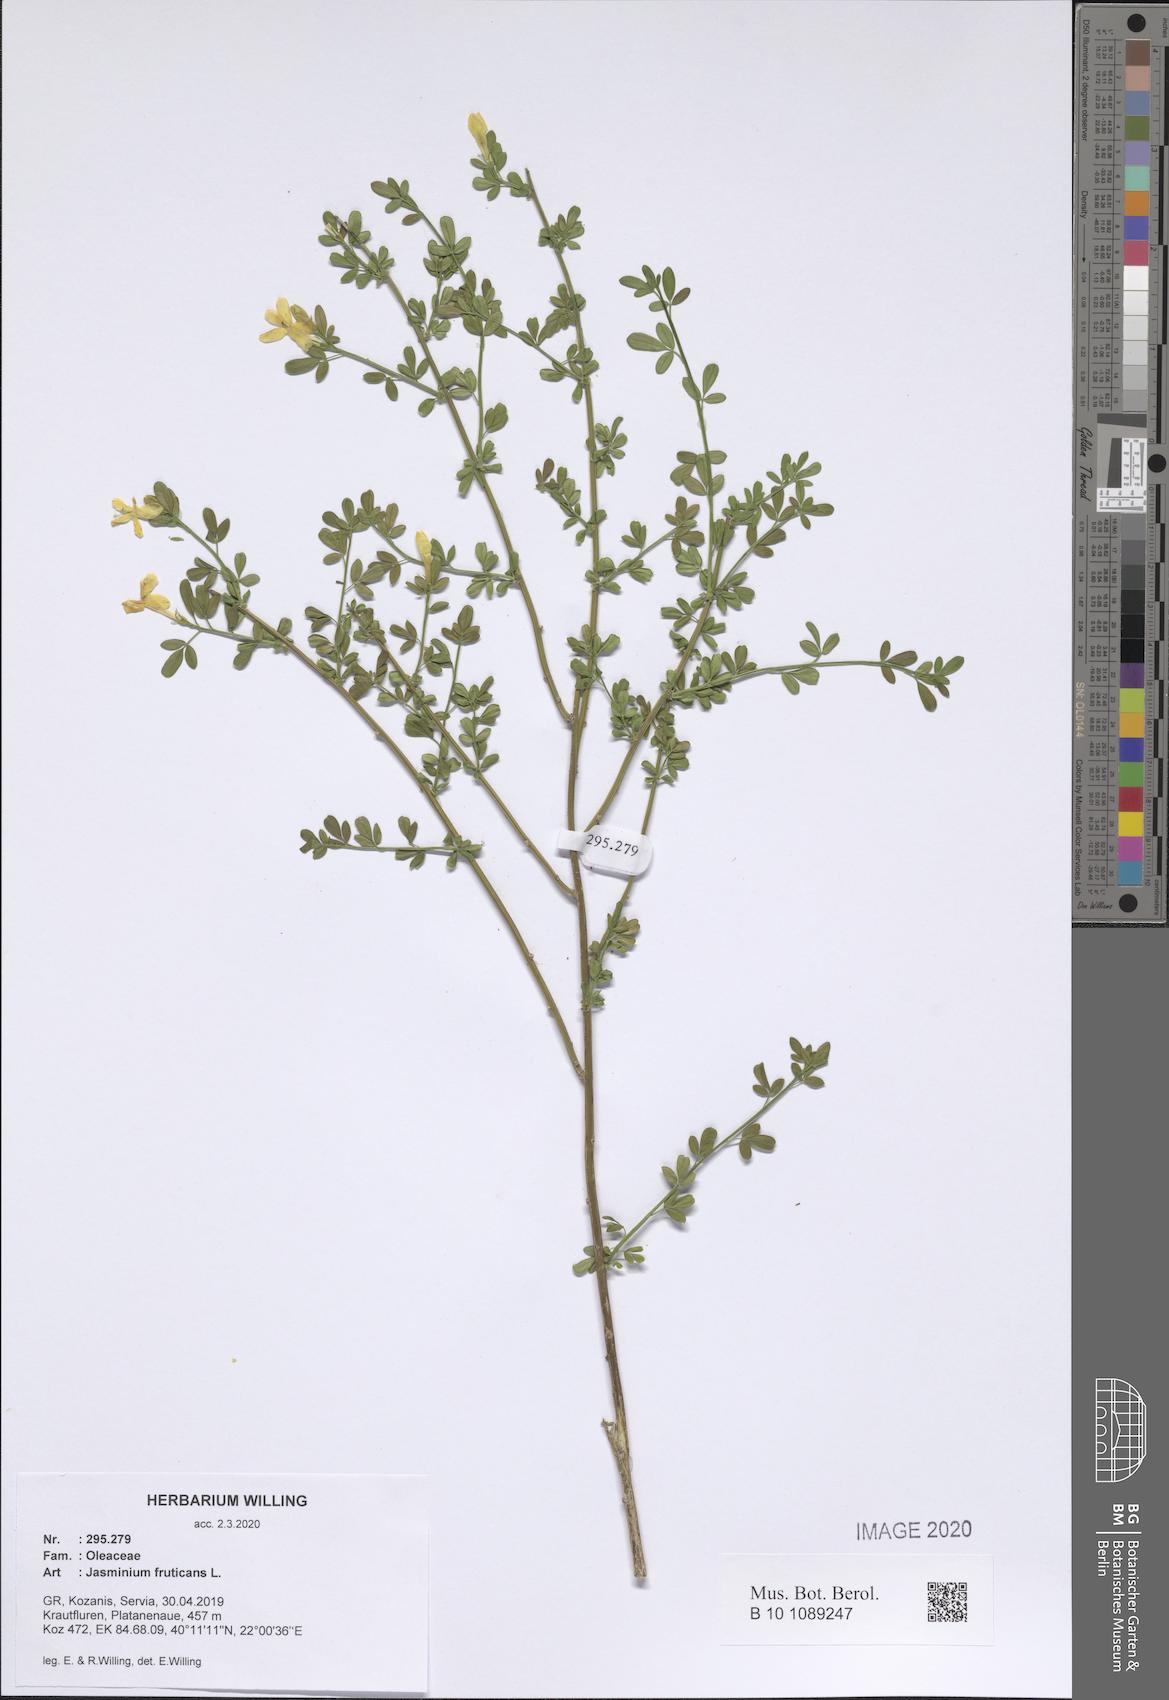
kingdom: Plantae
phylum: Tracheophyta
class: Magnoliopsida
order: Lamiales
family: Oleaceae
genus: Chrysojasminum
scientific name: Chrysojasminum fruticans
